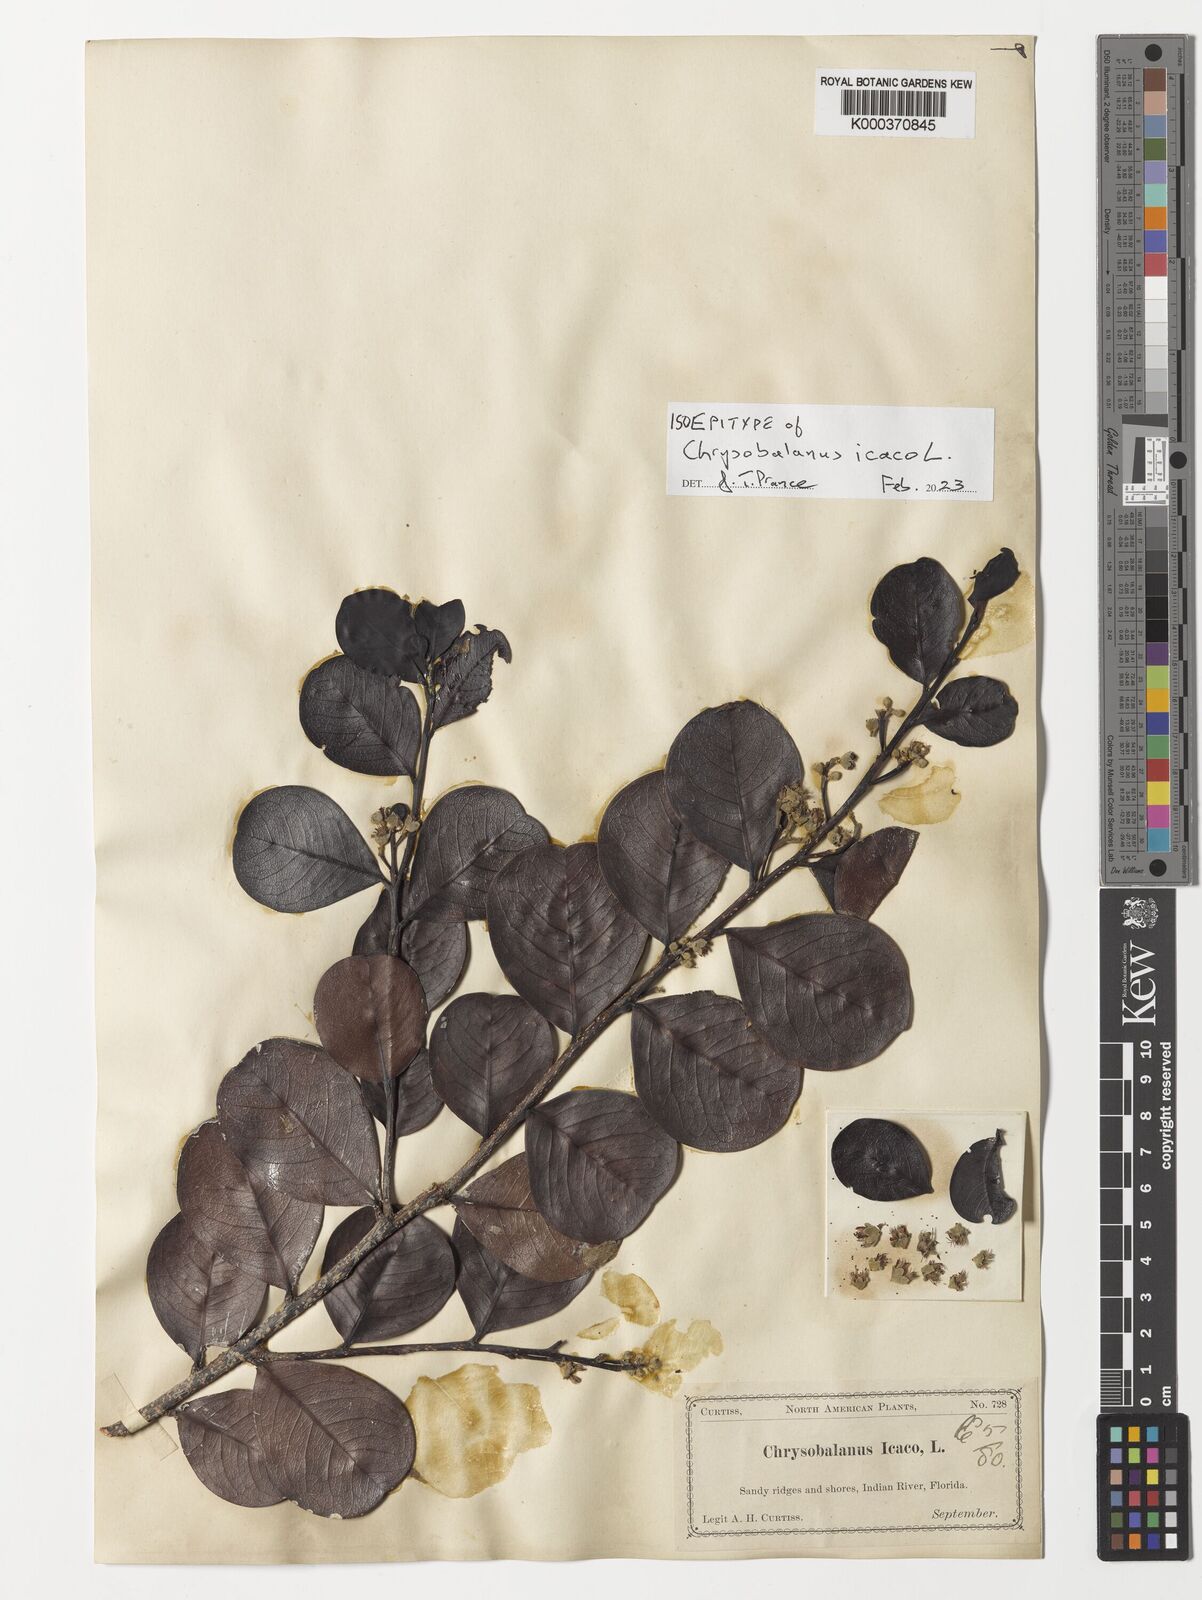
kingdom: Plantae
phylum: Tracheophyta
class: Magnoliopsida
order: Malpighiales
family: Chrysobalanaceae
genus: Chrysobalanus
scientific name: Chrysobalanus icaco
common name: Coco plum
